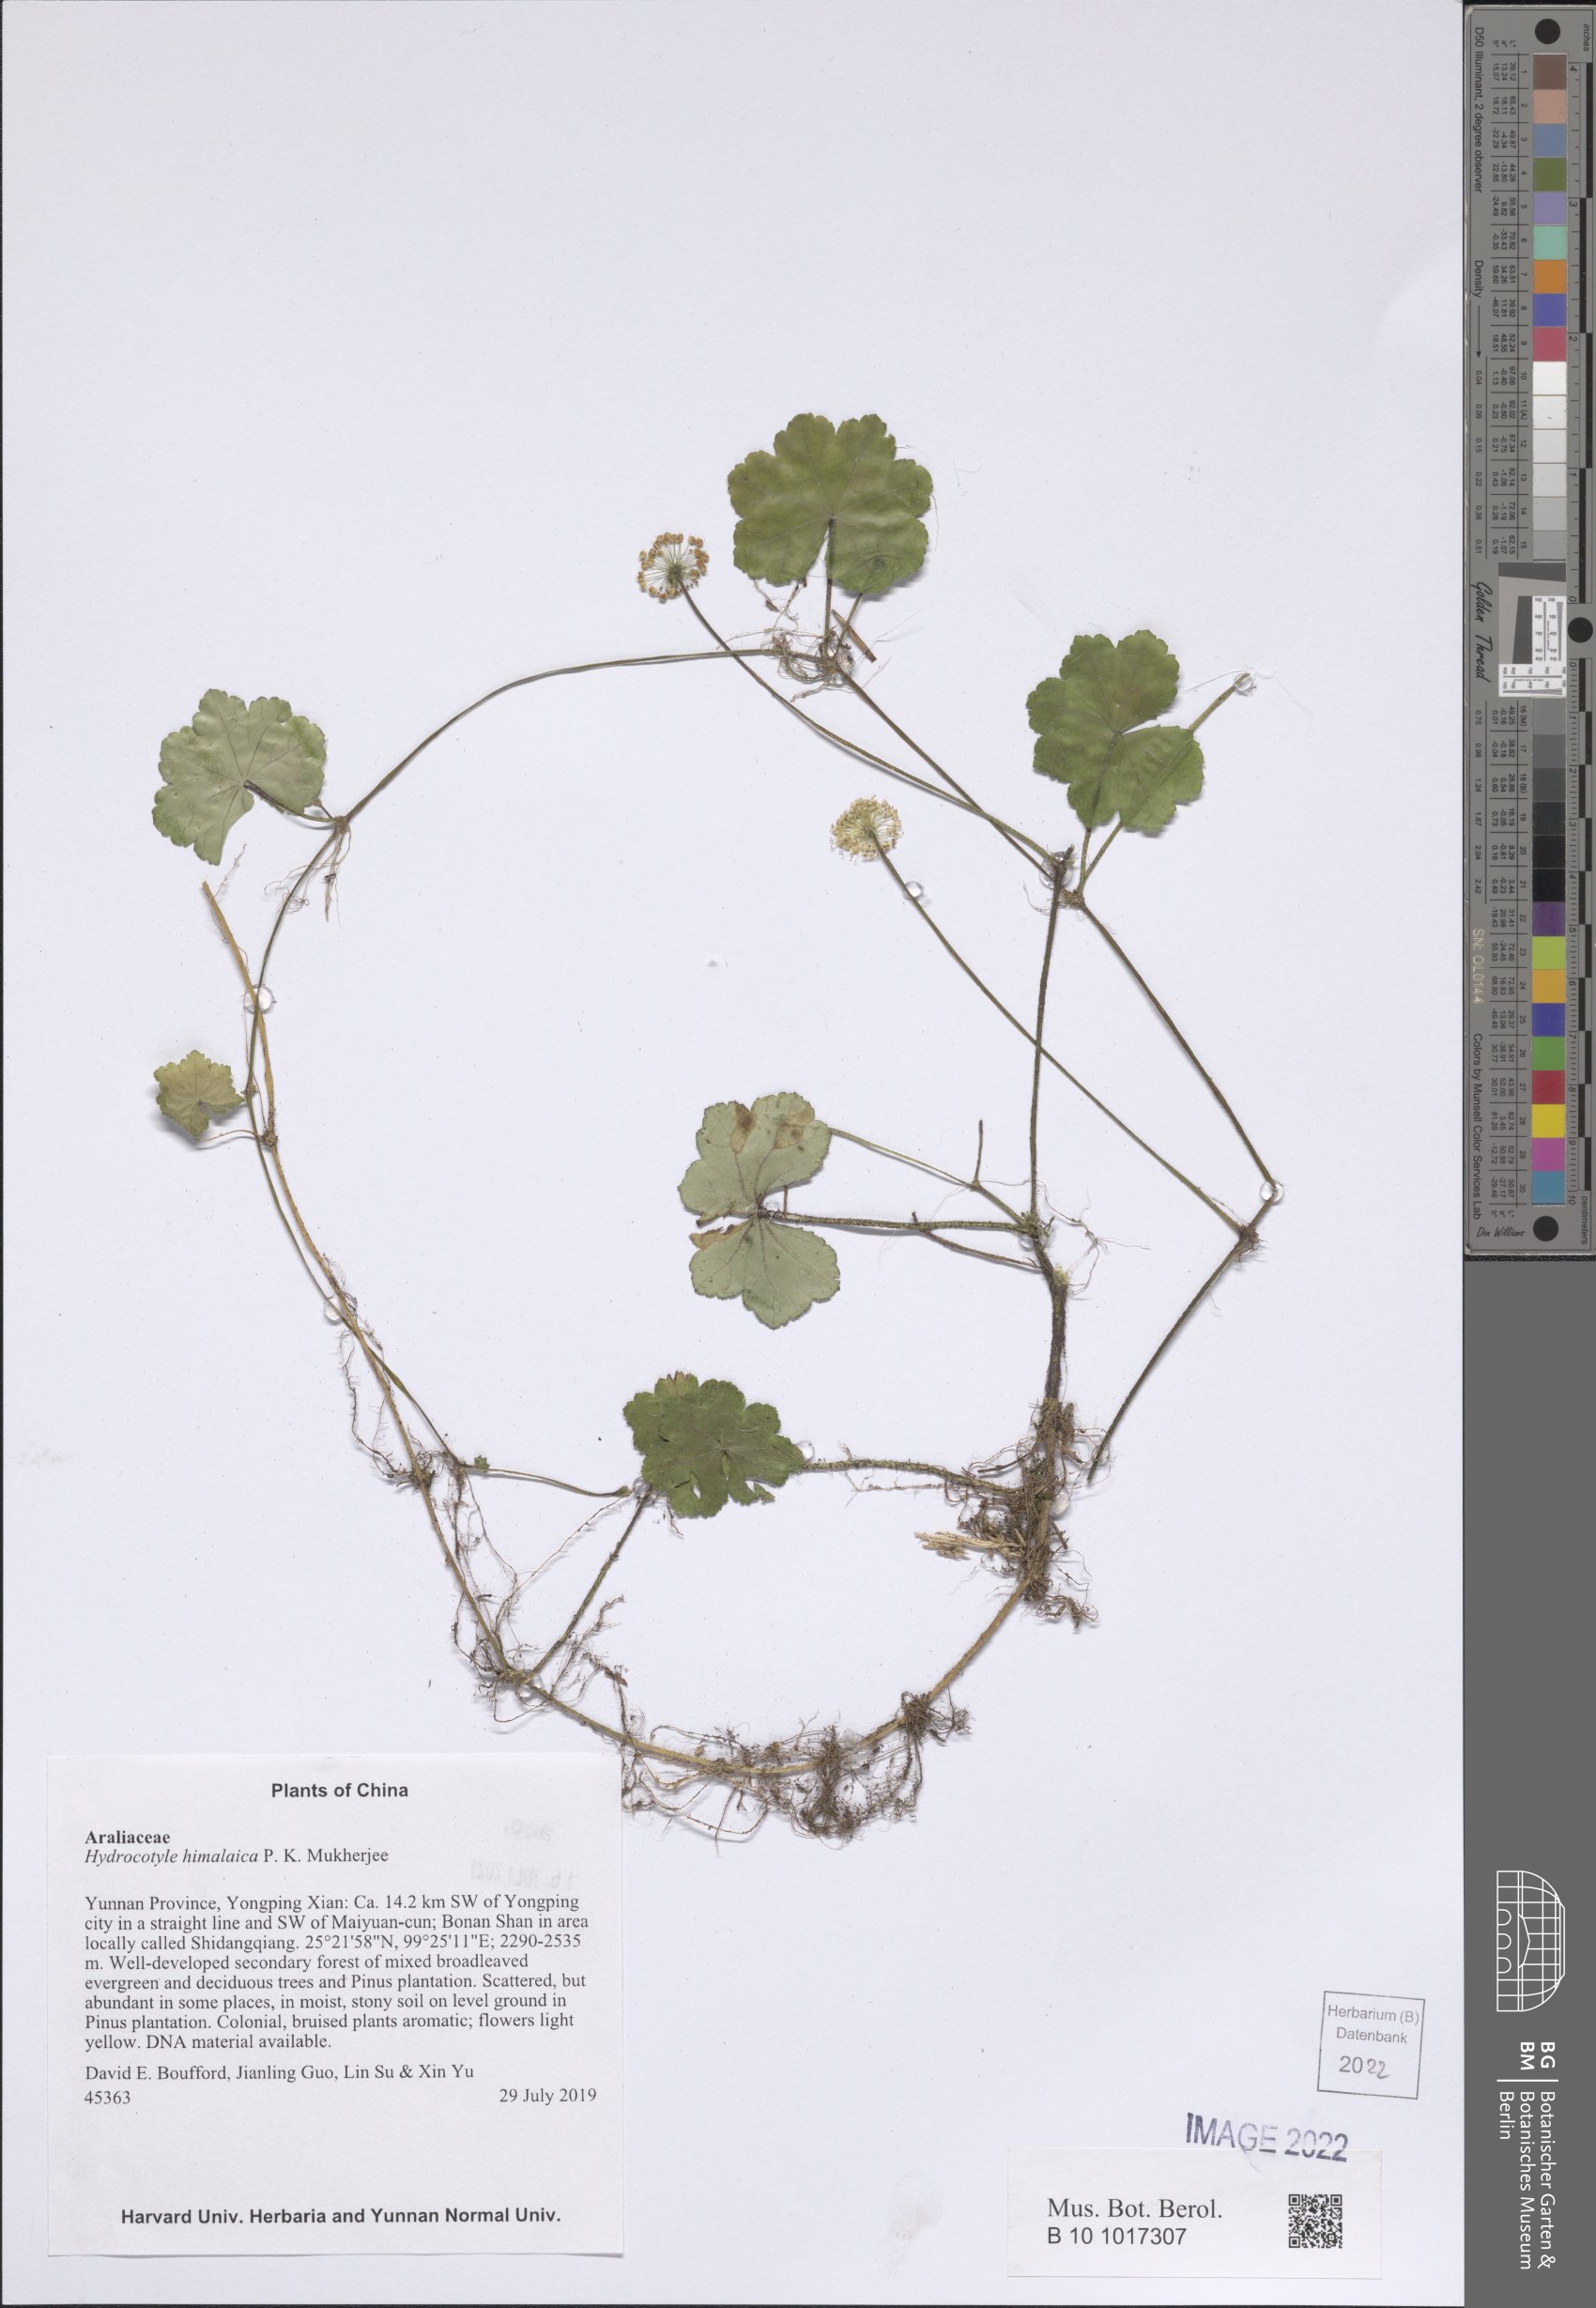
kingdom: Plantae
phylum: Tracheophyta
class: Magnoliopsida
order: Apiales
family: Araliaceae
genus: Hydrocotyle
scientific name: Hydrocotyle himalaica
